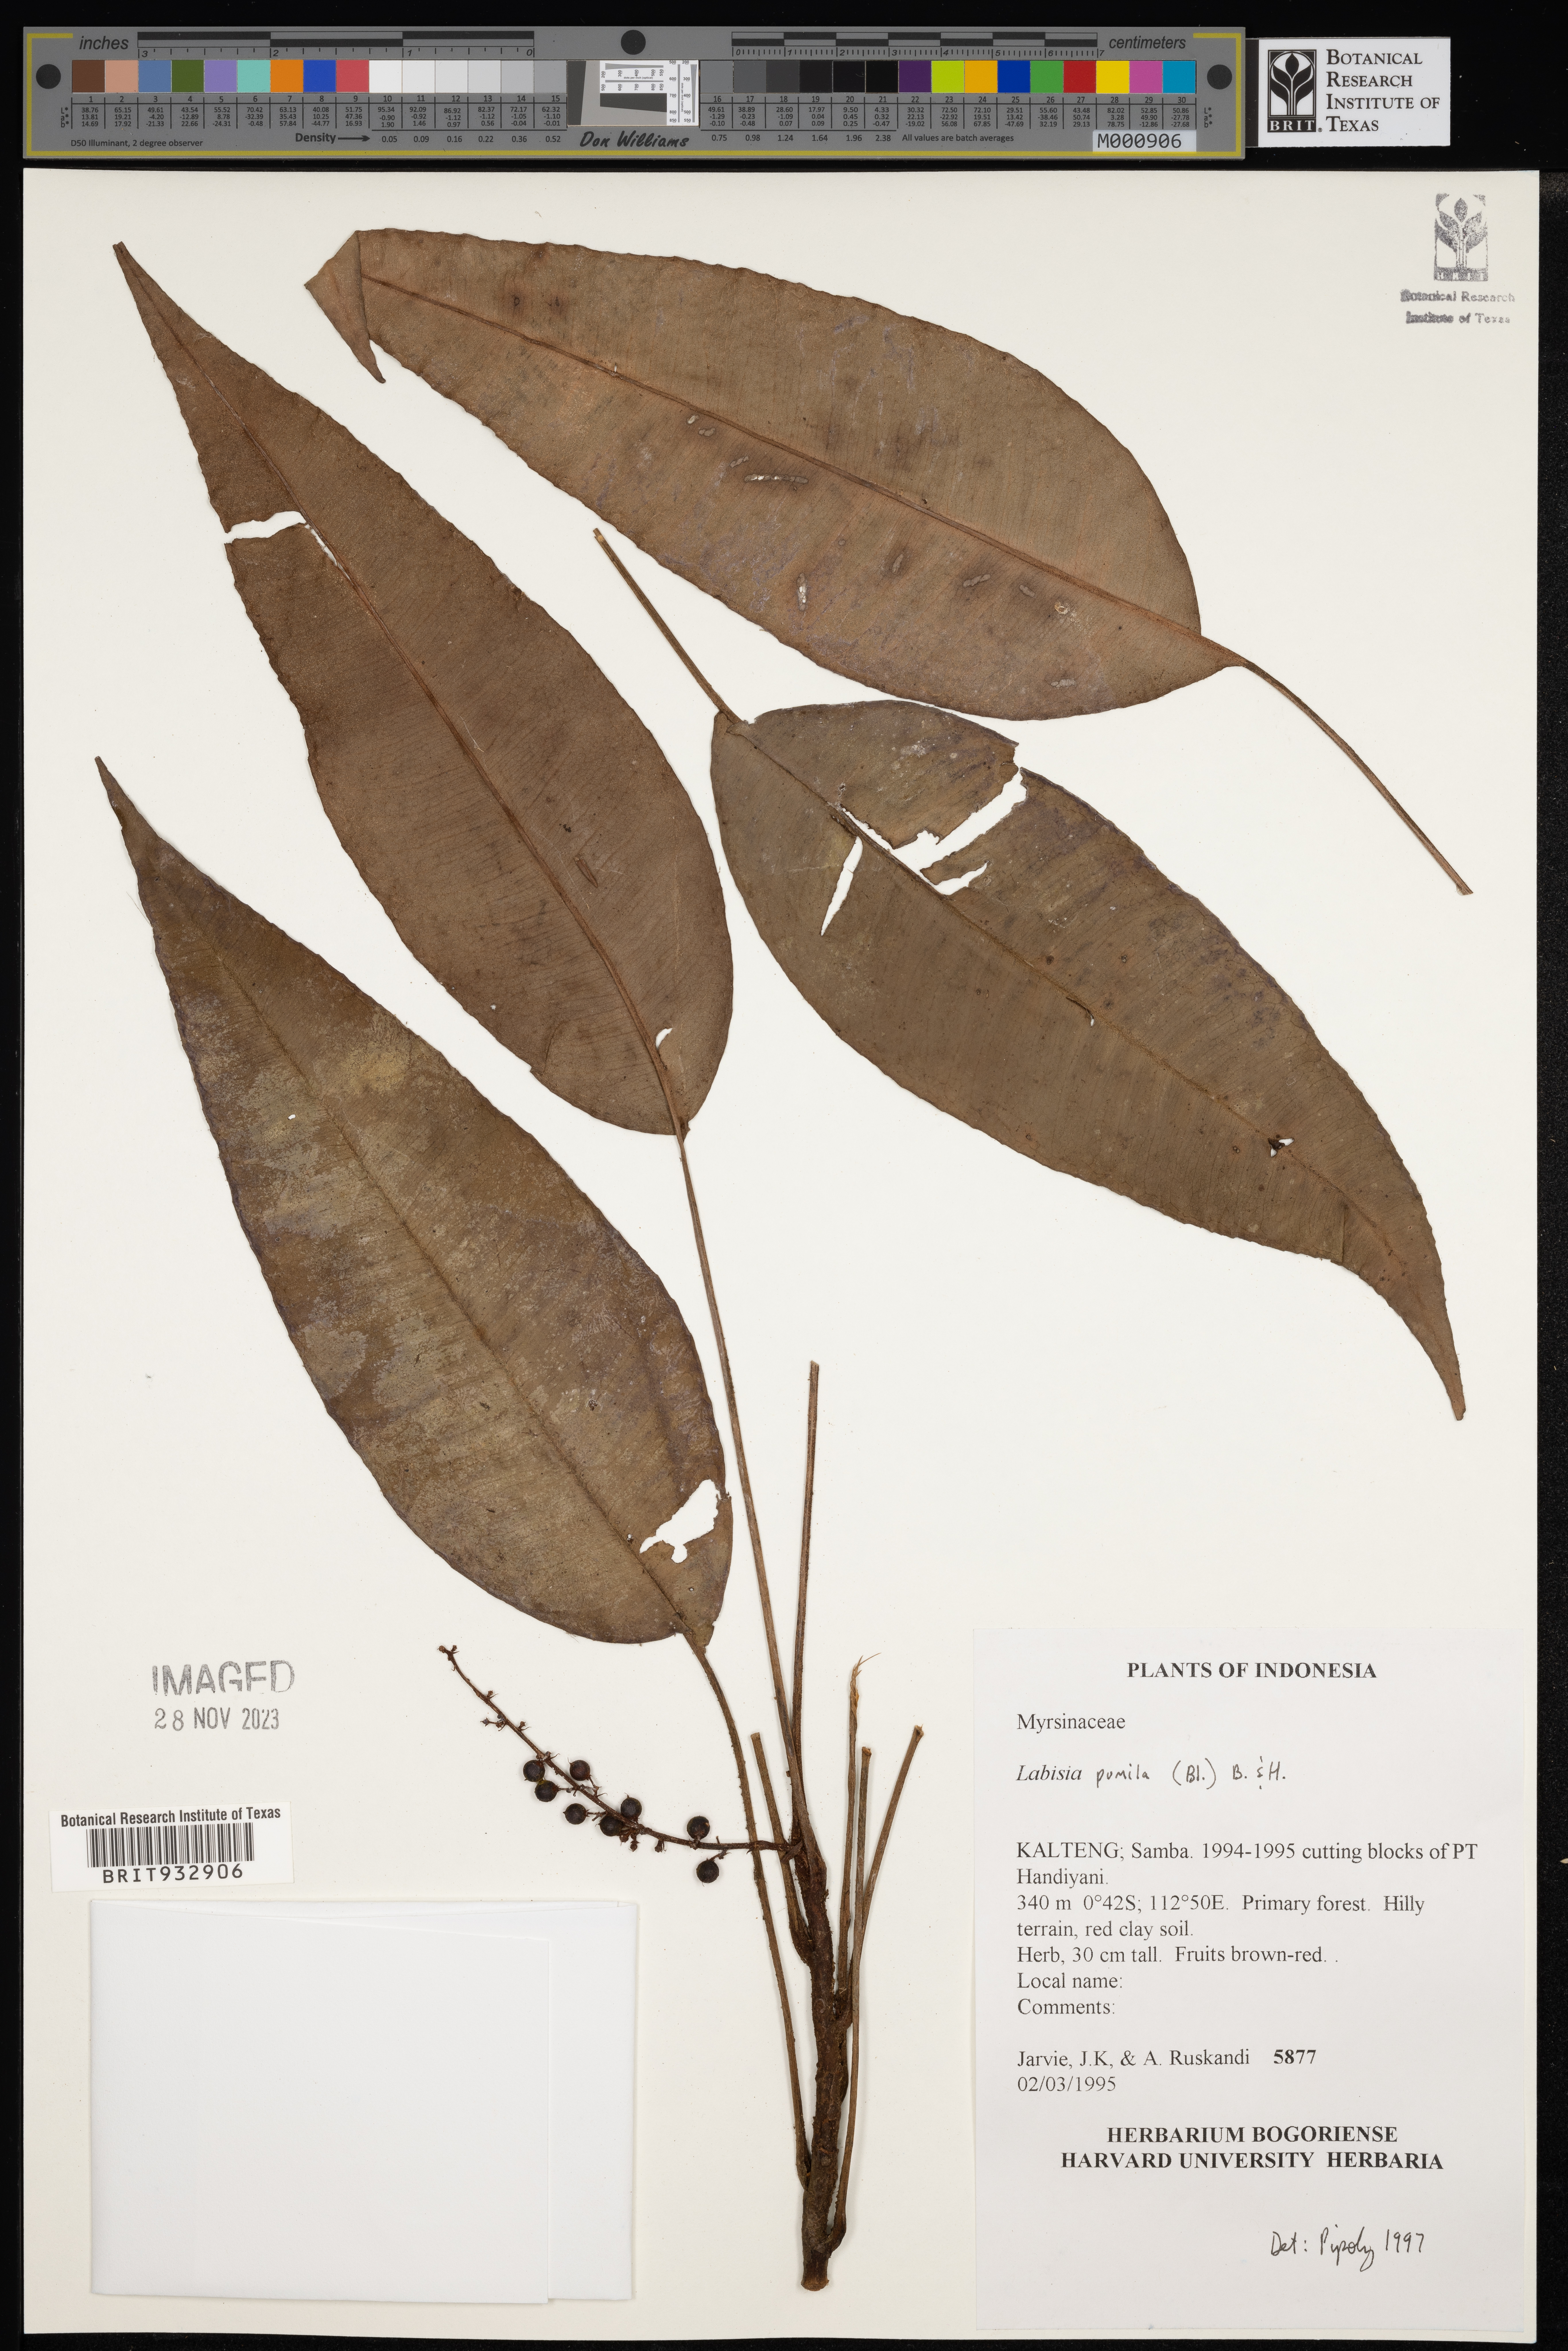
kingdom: Plantae
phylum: Tracheophyta
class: Magnoliopsida
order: Ericales
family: Primulaceae
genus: Labisia
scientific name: Labisia
